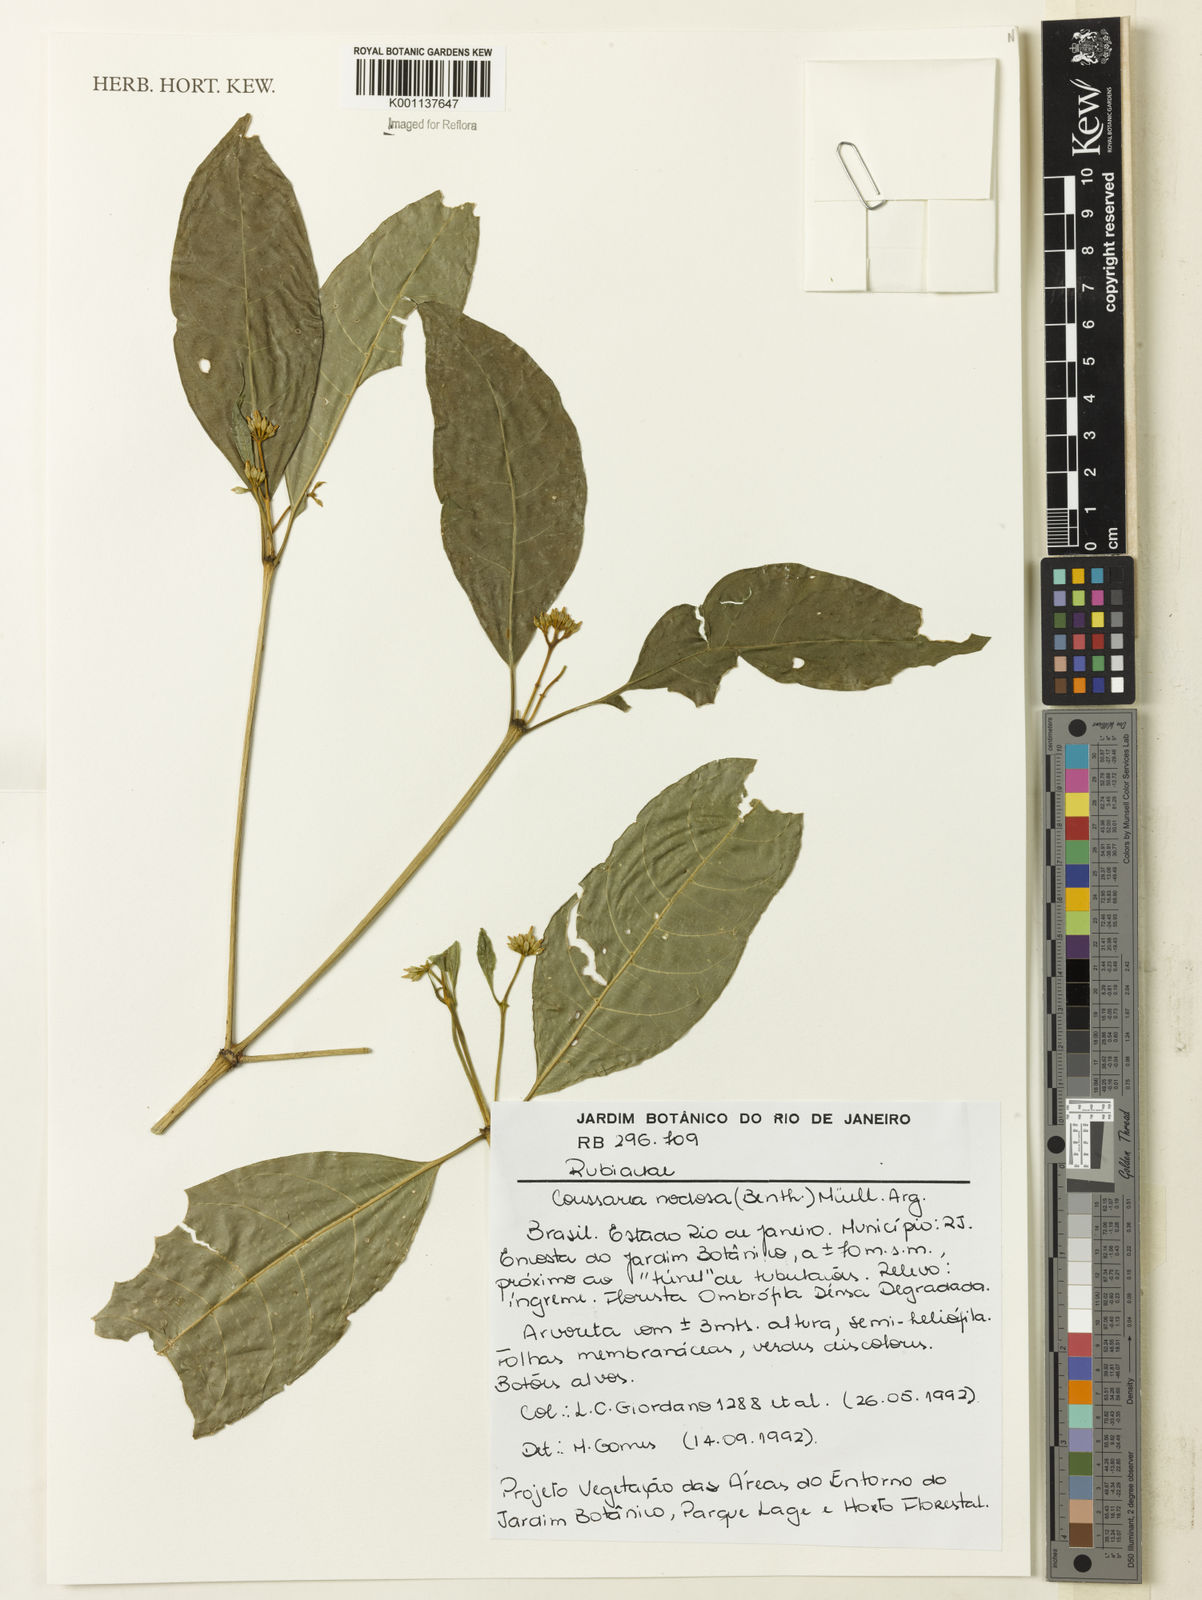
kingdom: Plantae
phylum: Tracheophyta
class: Magnoliopsida
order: Gentianales
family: Rubiaceae
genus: Coussarea
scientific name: Coussarea
